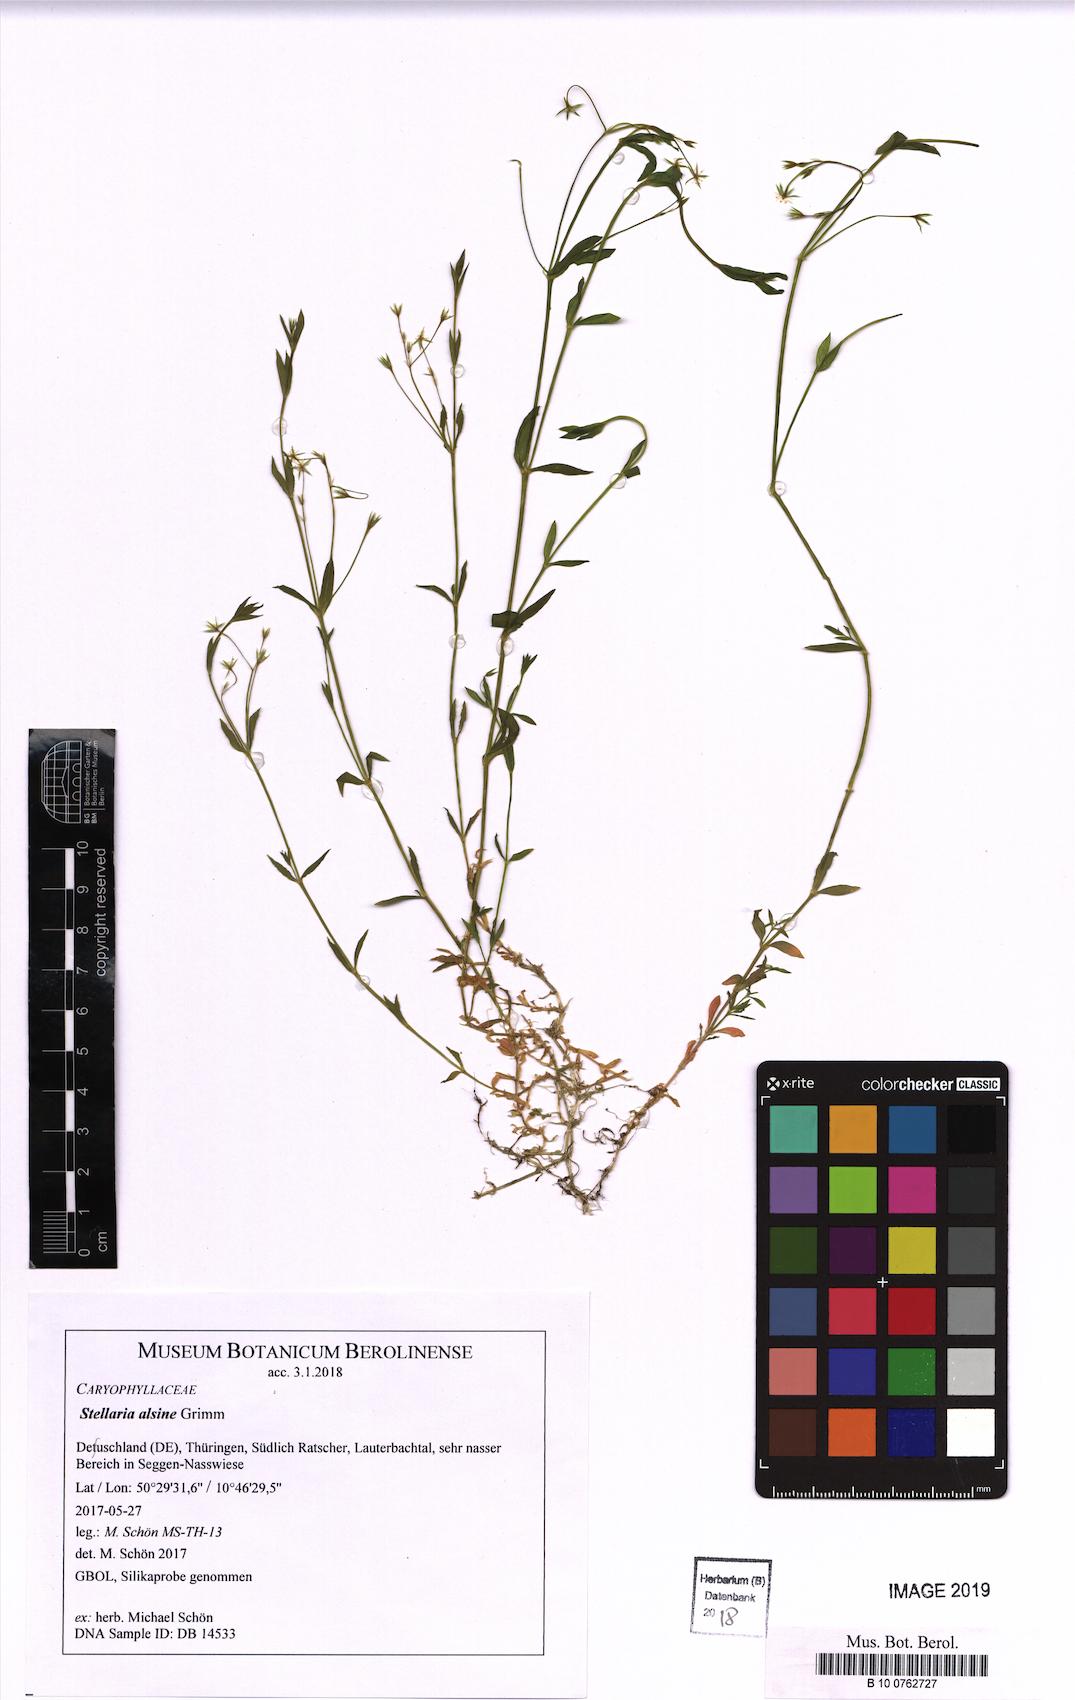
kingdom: Plantae
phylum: Tracheophyta
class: Magnoliopsida
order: Caryophyllales
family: Caryophyllaceae
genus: Stellaria
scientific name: Stellaria alsine
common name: Bog stitchwort
